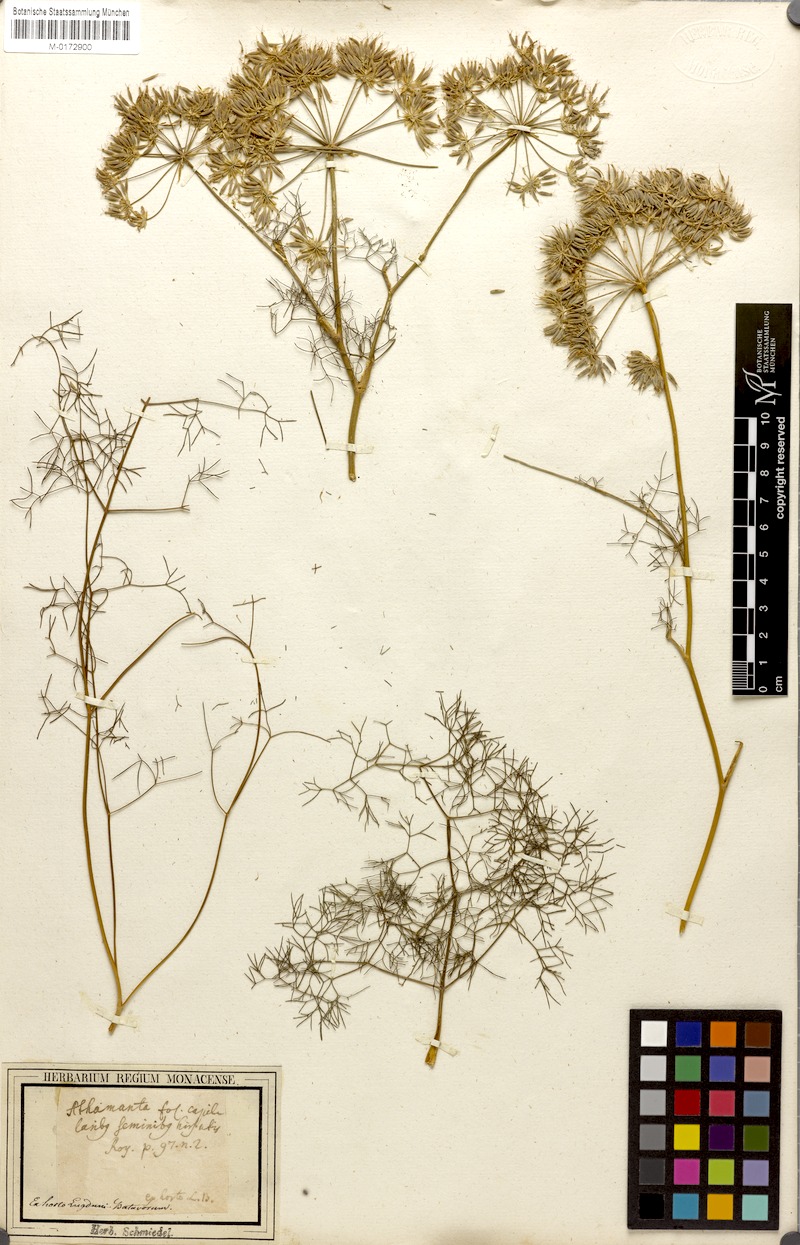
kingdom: Plantae
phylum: Tracheophyta
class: Magnoliopsida
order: Apiales
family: Apiaceae
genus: Athamanta
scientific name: Athamanta turbith
